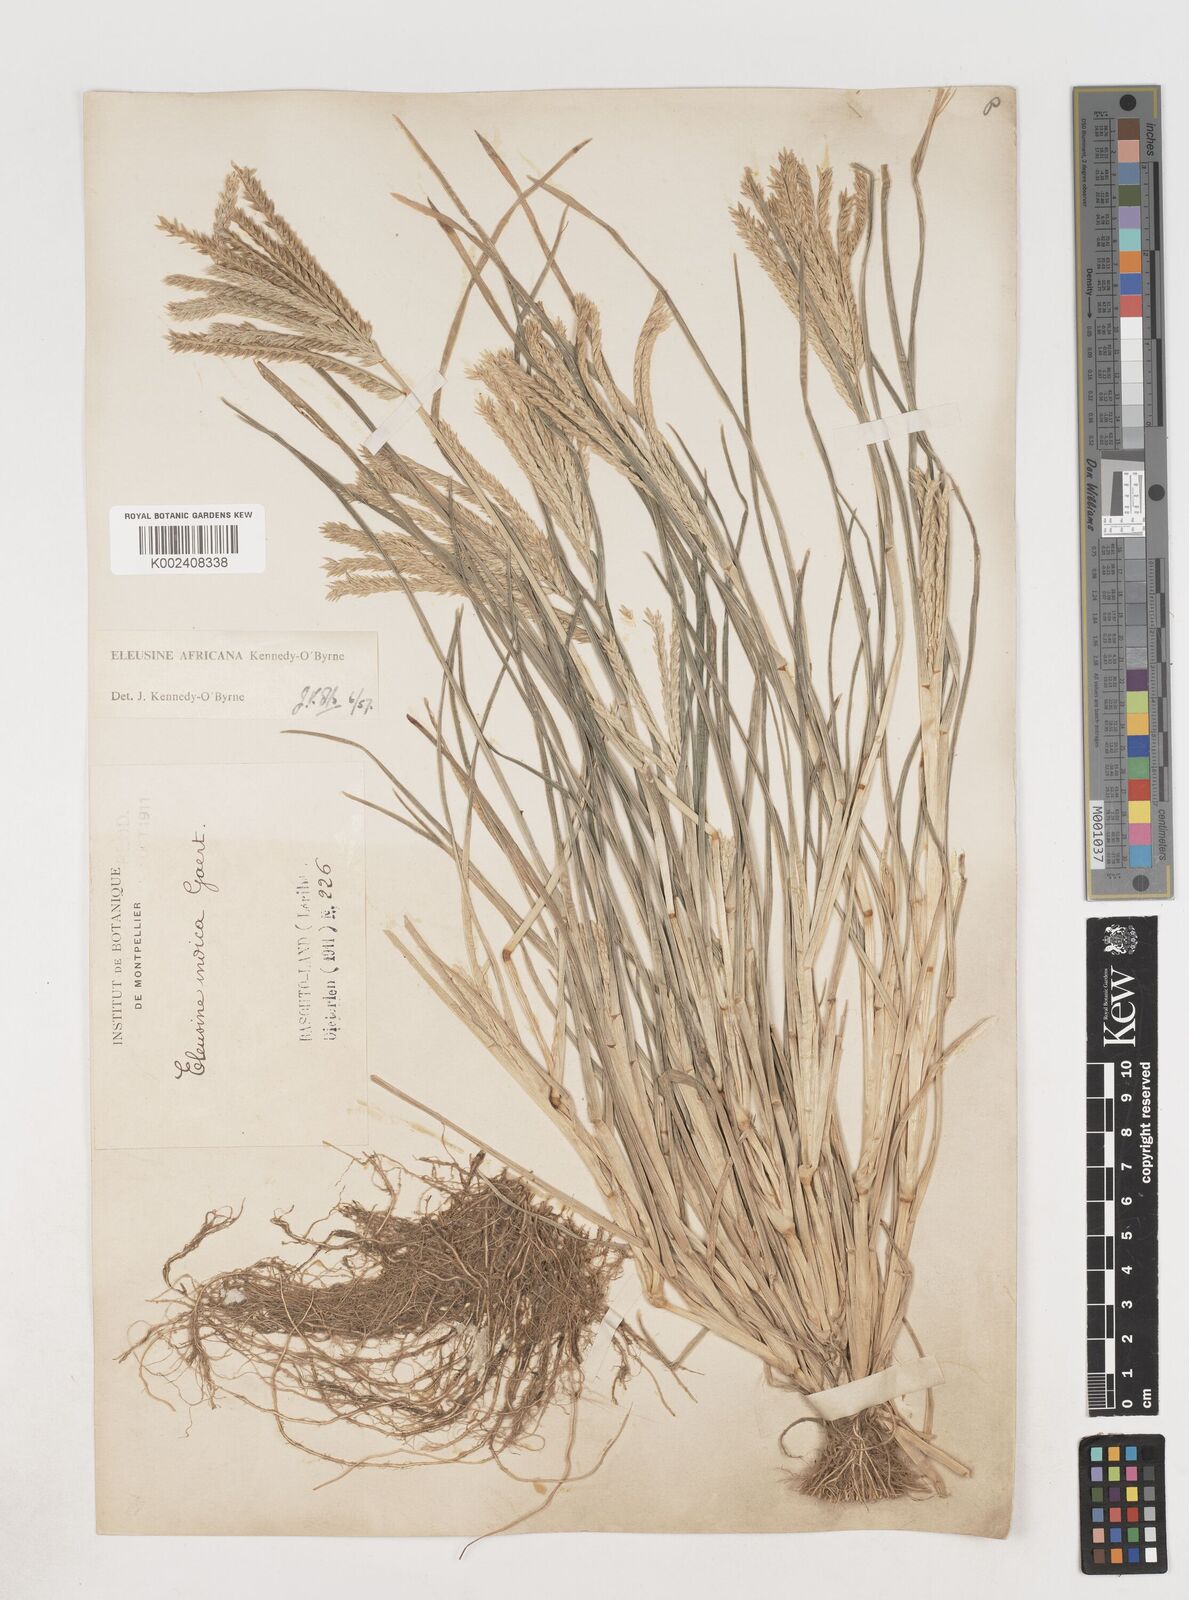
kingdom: Plantae
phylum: Tracheophyta
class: Liliopsida
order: Poales
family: Poaceae
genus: Eleusine
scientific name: Eleusine africana
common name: Wild african finger millet
